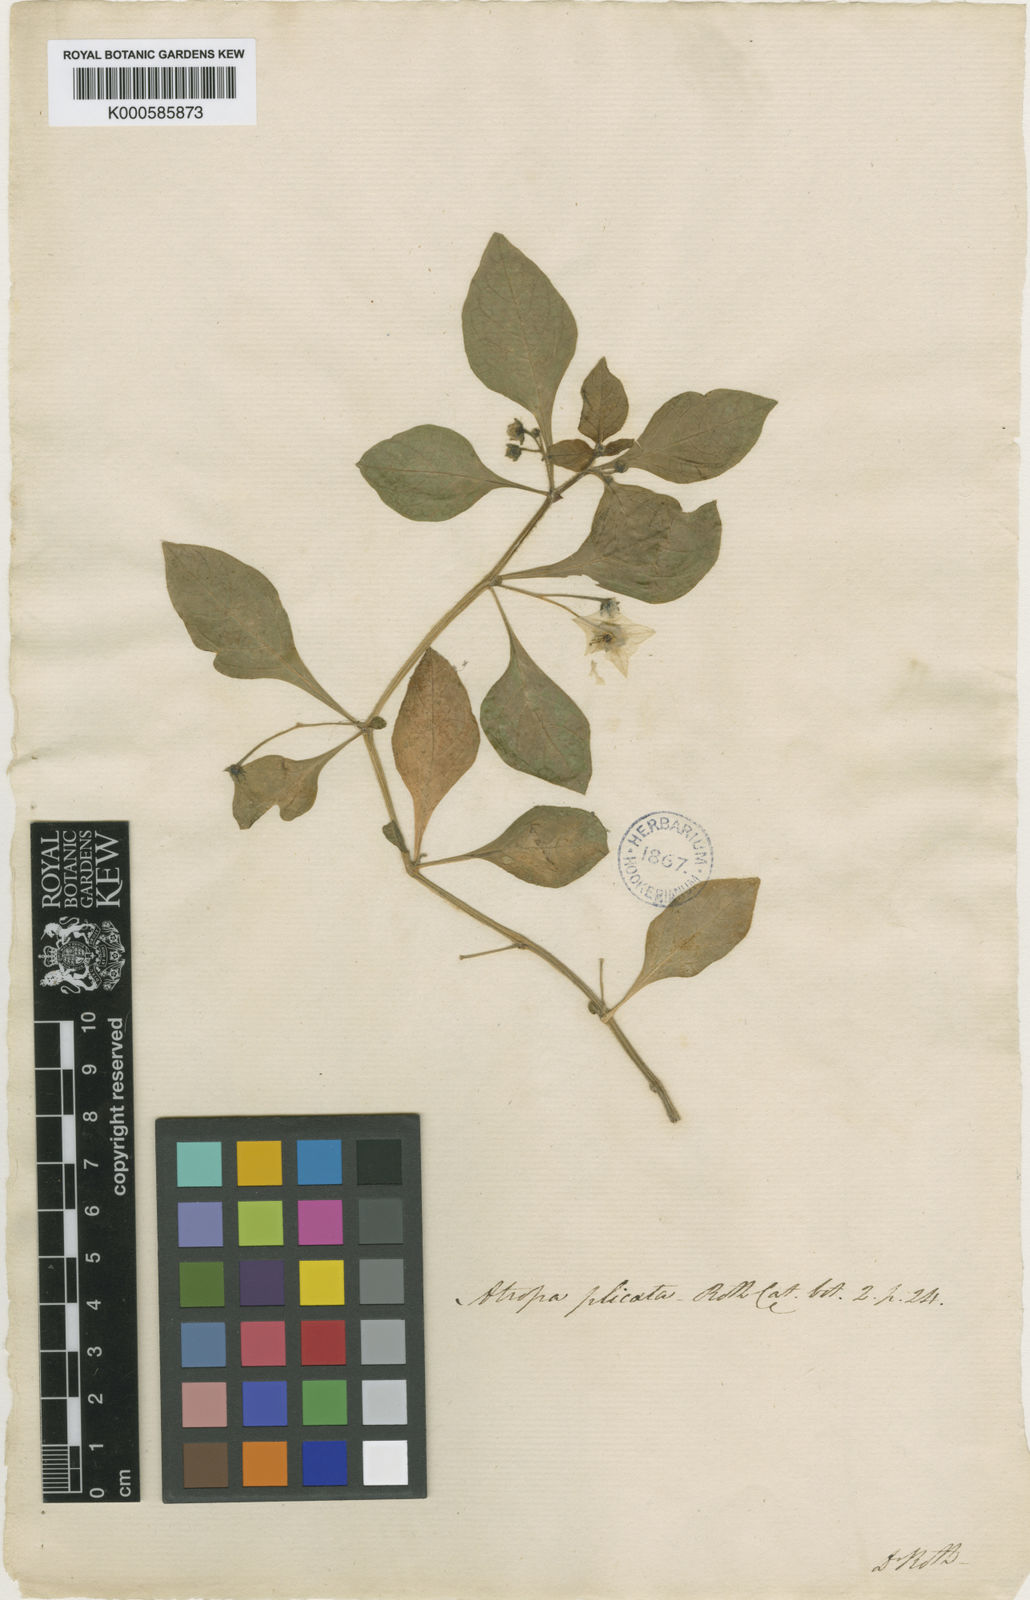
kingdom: Plantae
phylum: Tracheophyta
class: Magnoliopsida
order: Solanales
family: Solanaceae
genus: Jaltomata
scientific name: Jaltomata procumbens
